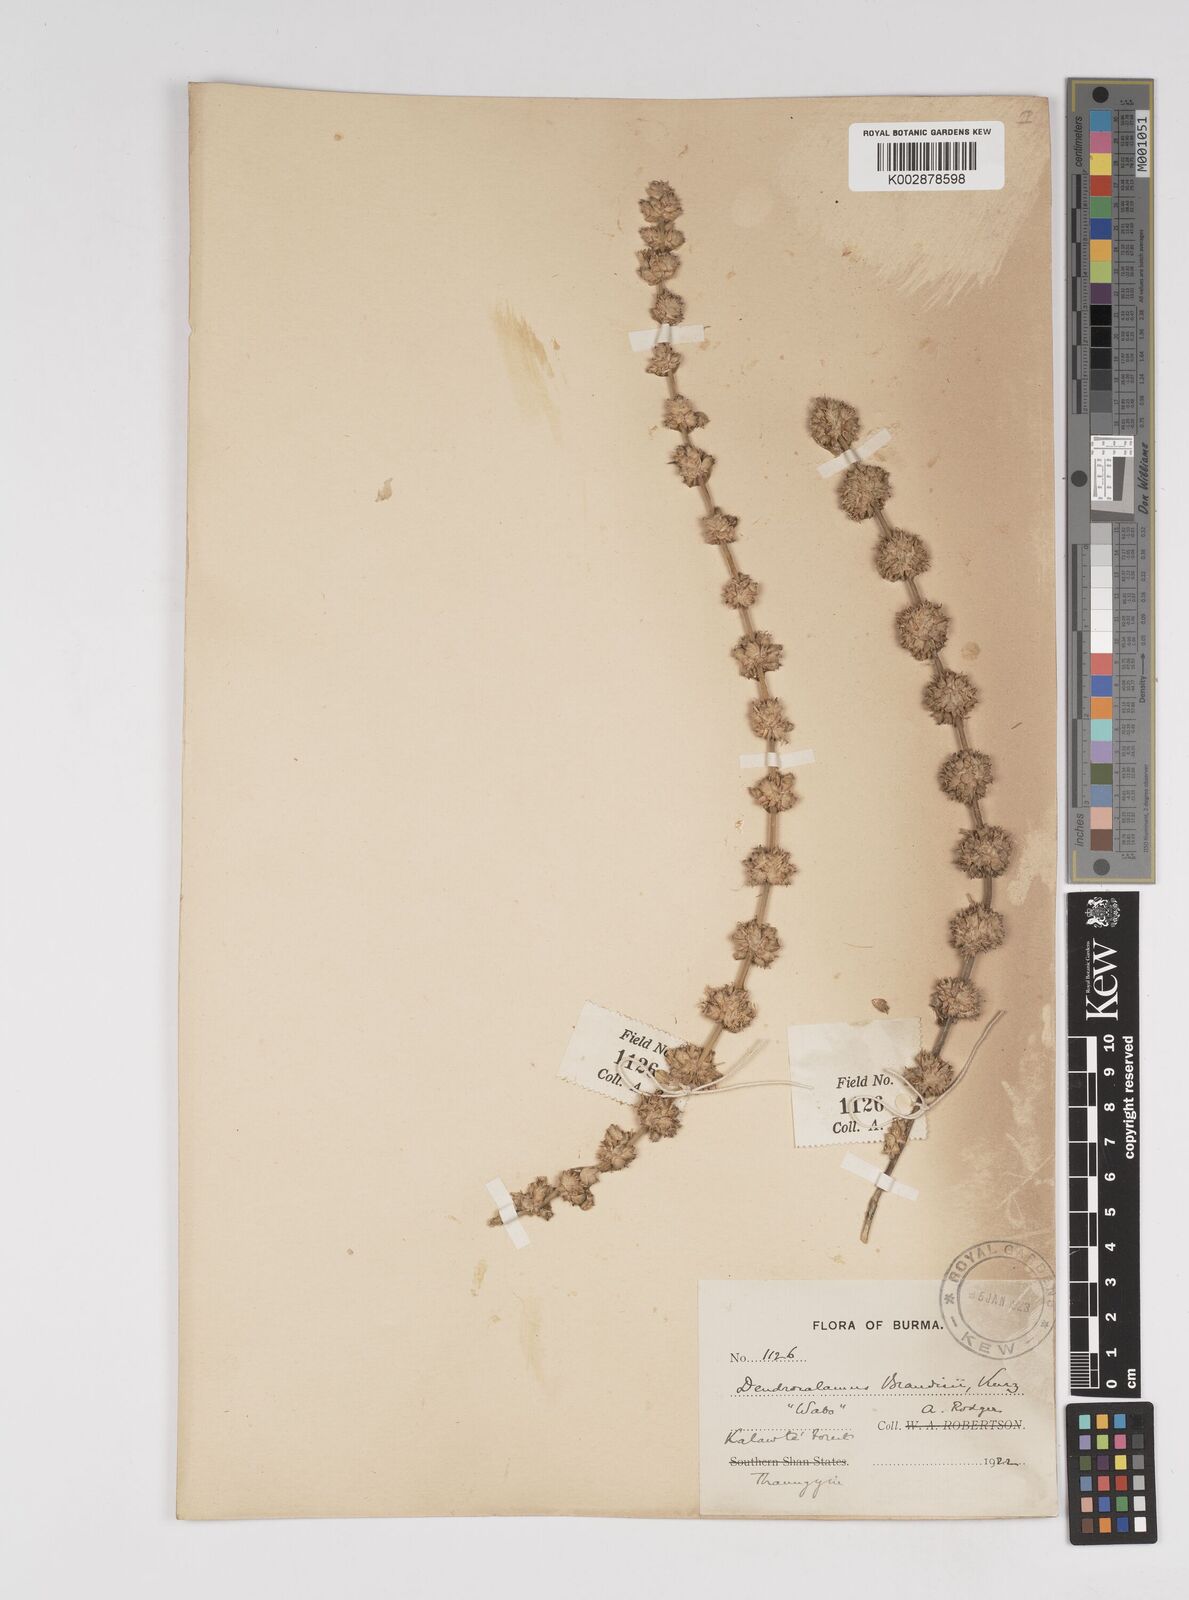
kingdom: Plantae
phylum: Tracheophyta
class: Liliopsida
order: Poales
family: Poaceae
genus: Dendrocalamus
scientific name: Dendrocalamus brandisii
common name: Velvetleaf bamboo
